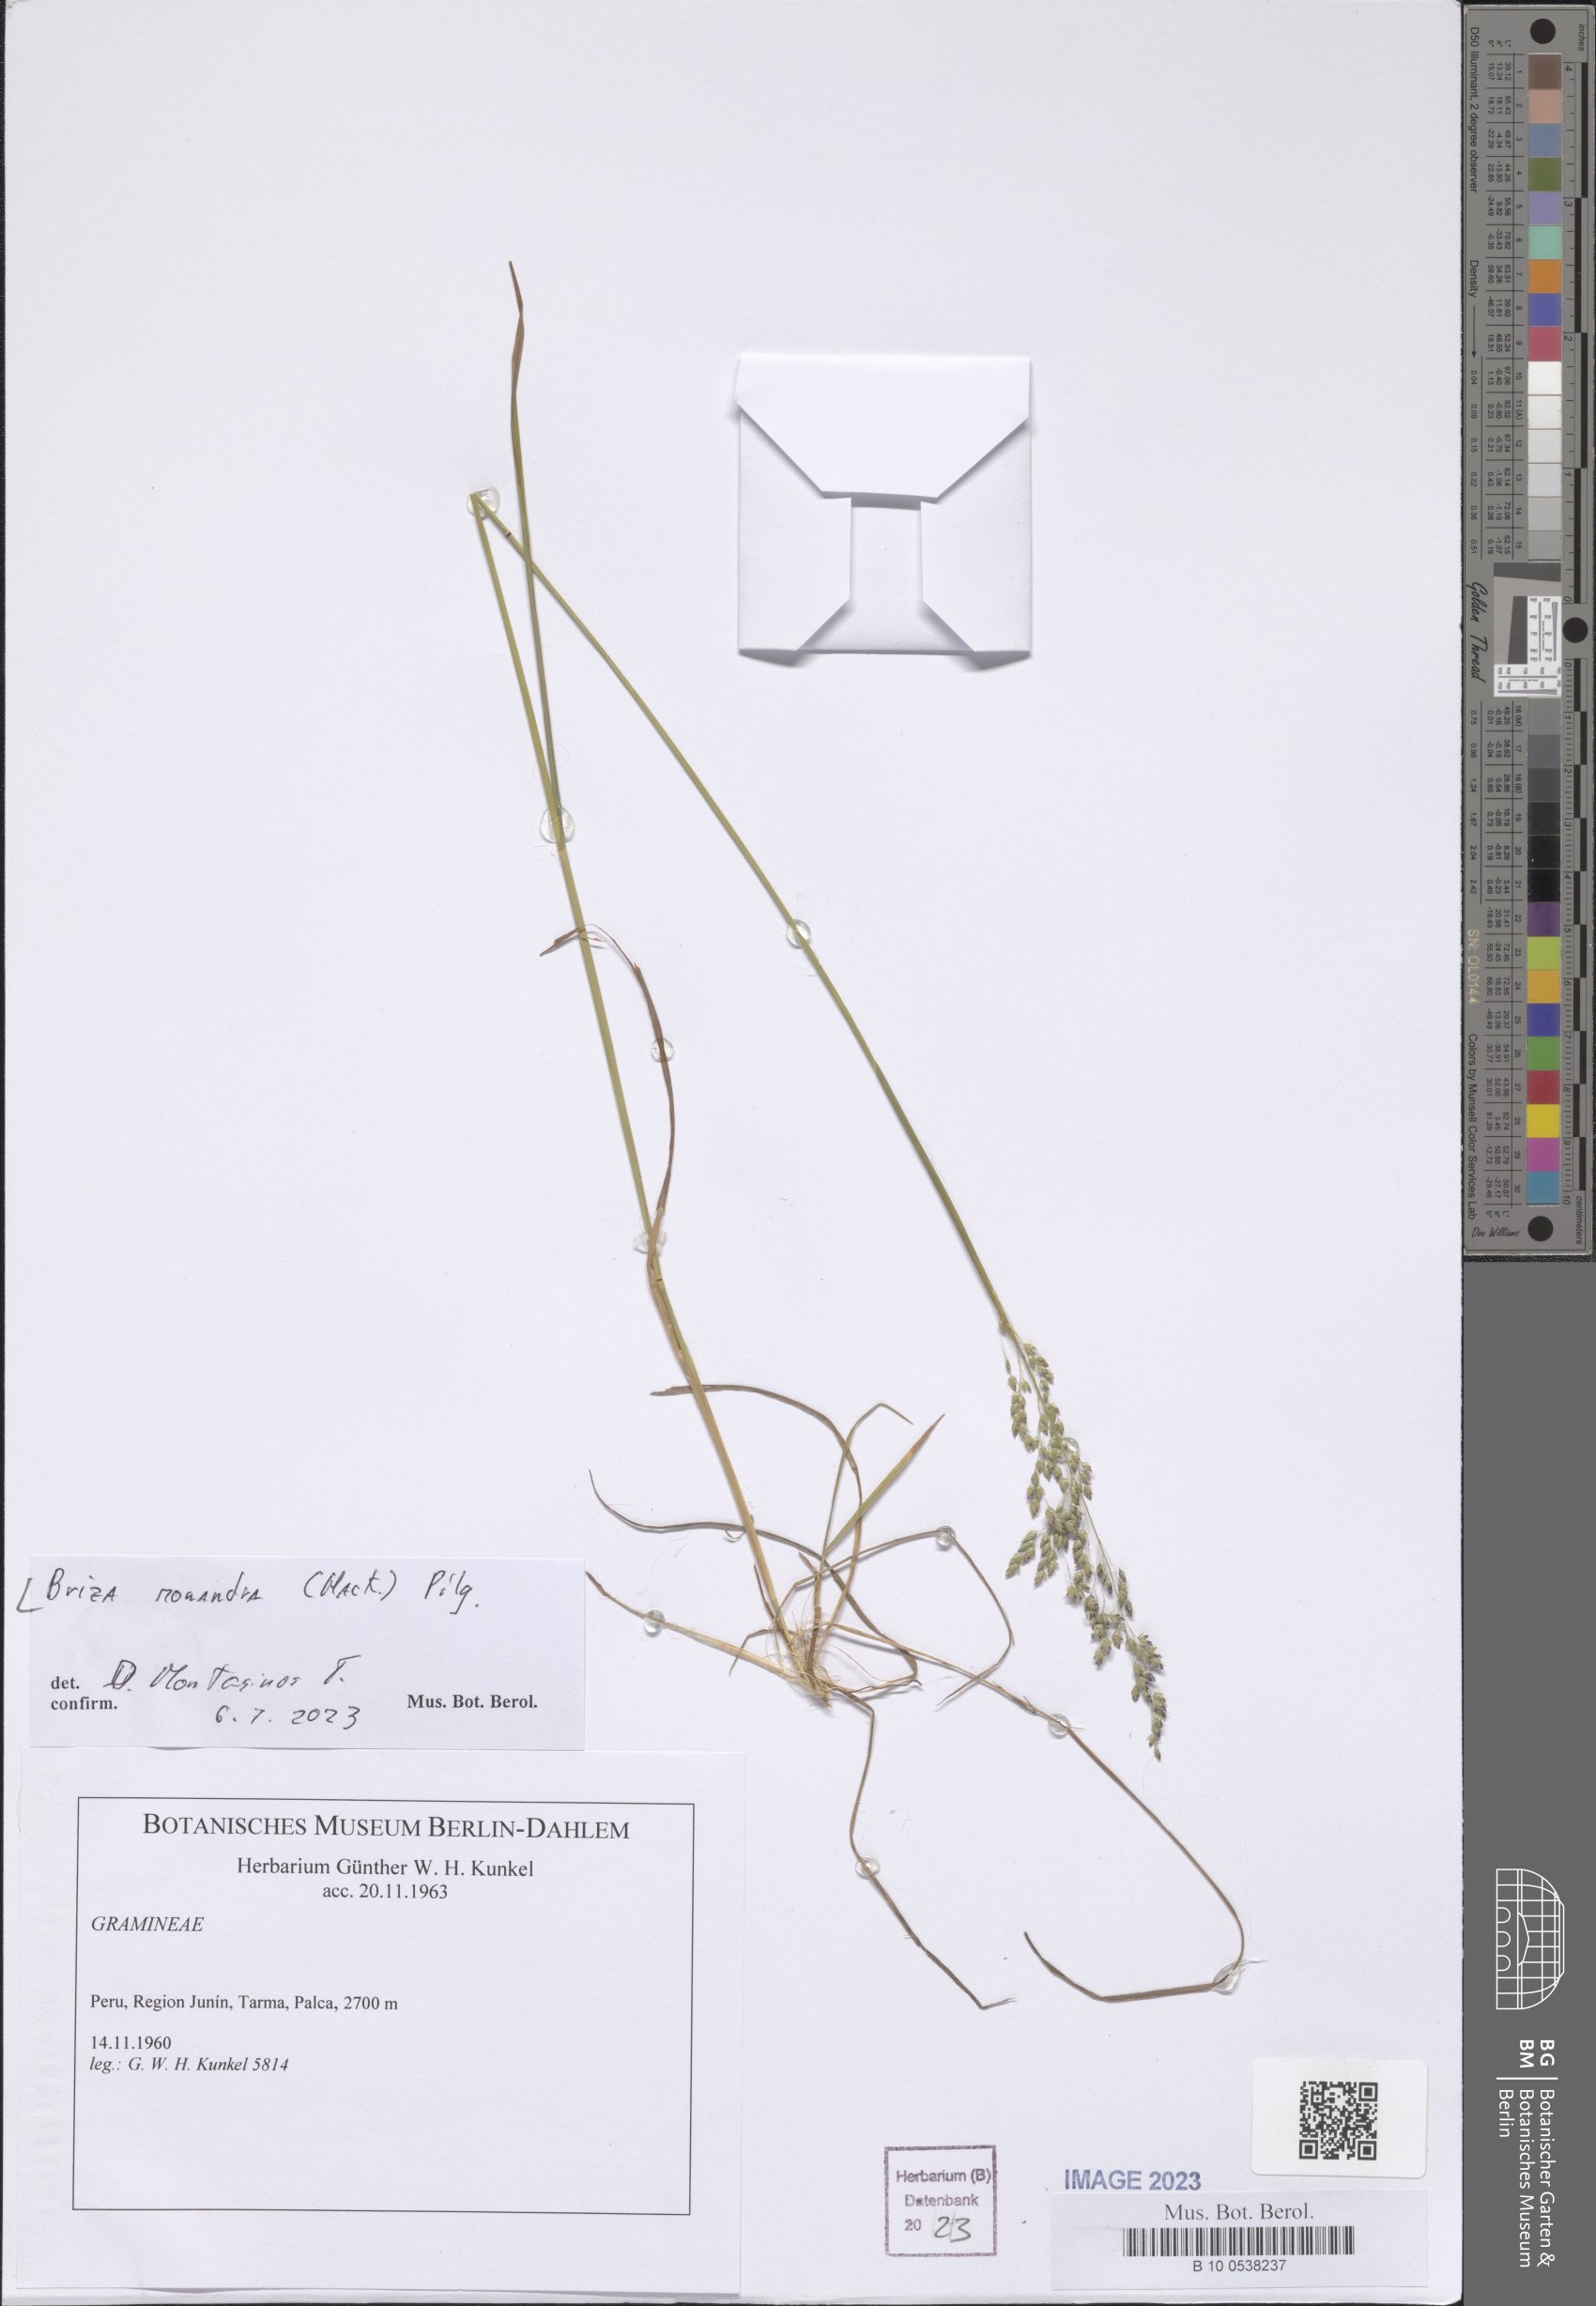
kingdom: Plantae
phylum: Tracheophyta
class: Liliopsida
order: Poales
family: Poaceae
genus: Poidium
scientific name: Poidium monandrum
